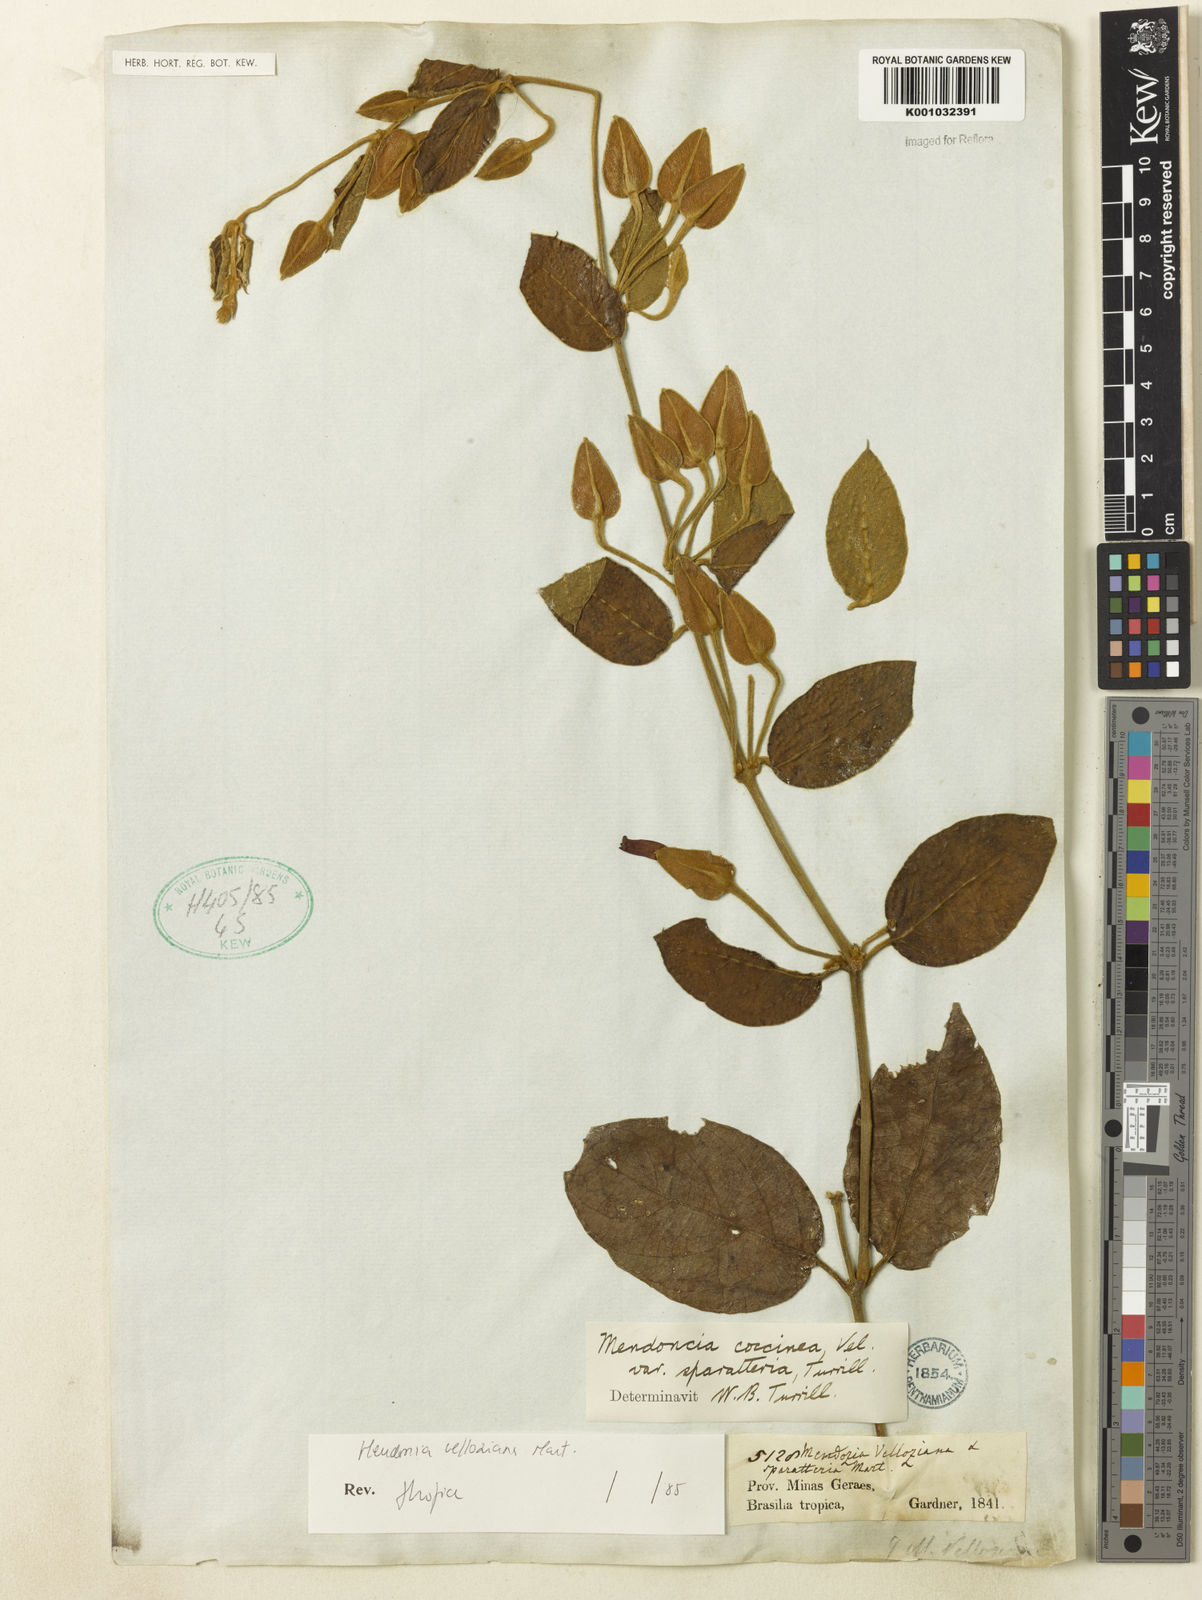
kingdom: Plantae
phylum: Tracheophyta
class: Magnoliopsida
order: Lamiales
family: Acanthaceae
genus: Mendoncia
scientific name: Mendoncia velloziana
